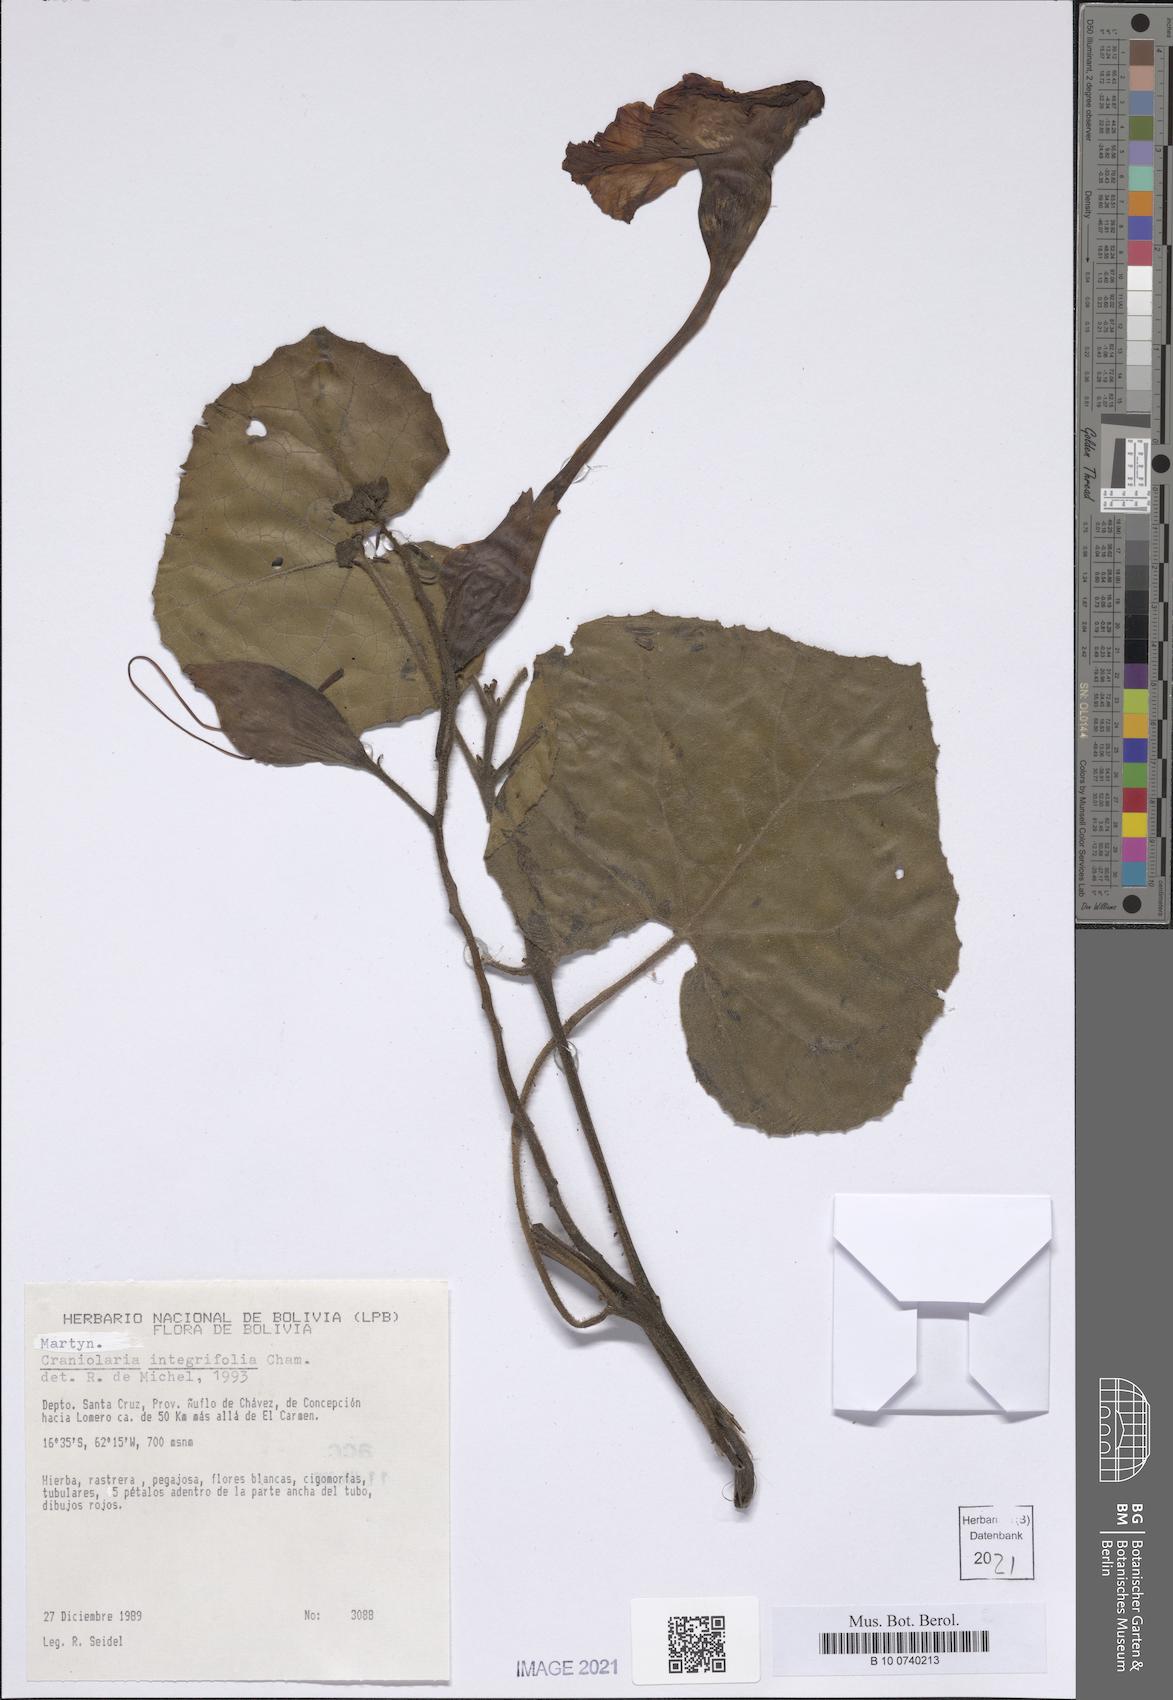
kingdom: Plantae
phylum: Tracheophyta
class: Magnoliopsida
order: Lamiales
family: Martyniaceae
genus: Craniolaria
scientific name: Craniolaria integrifolia
